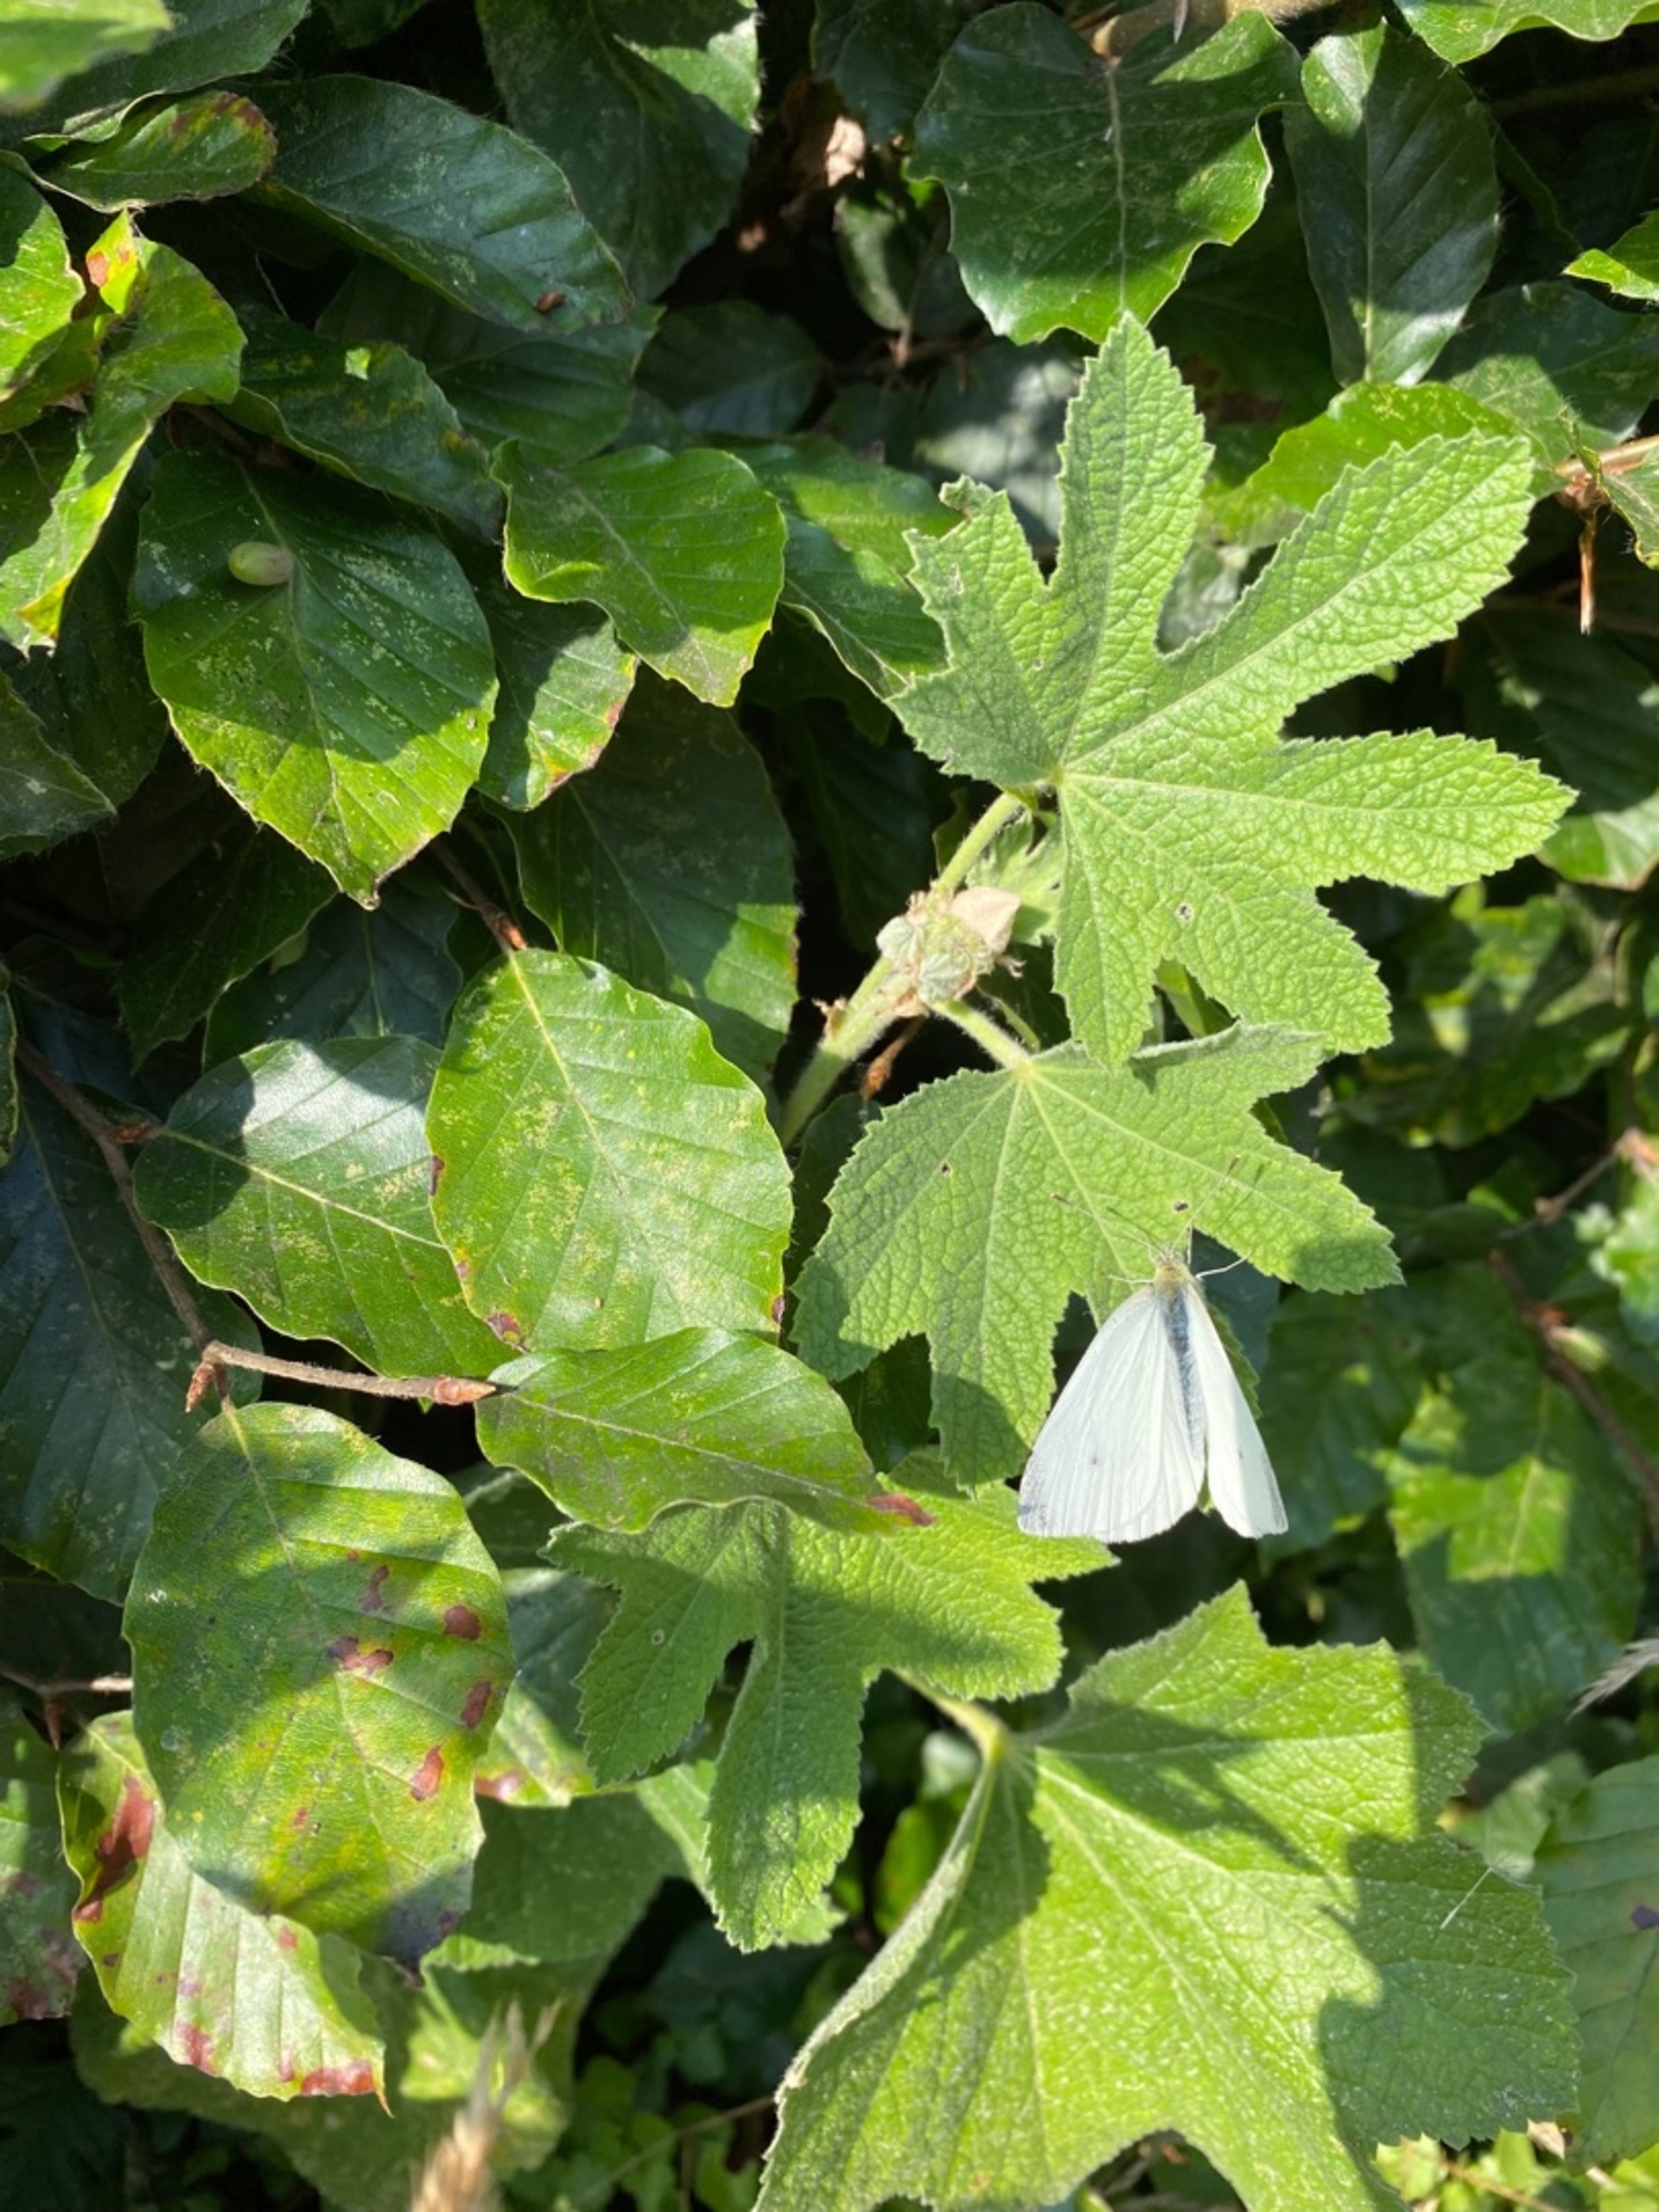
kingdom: Plantae
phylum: Tracheophyta
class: Magnoliopsida
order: Malvales
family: Malvaceae
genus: Alcea
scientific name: Alcea rosea
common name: Have-stokrose
